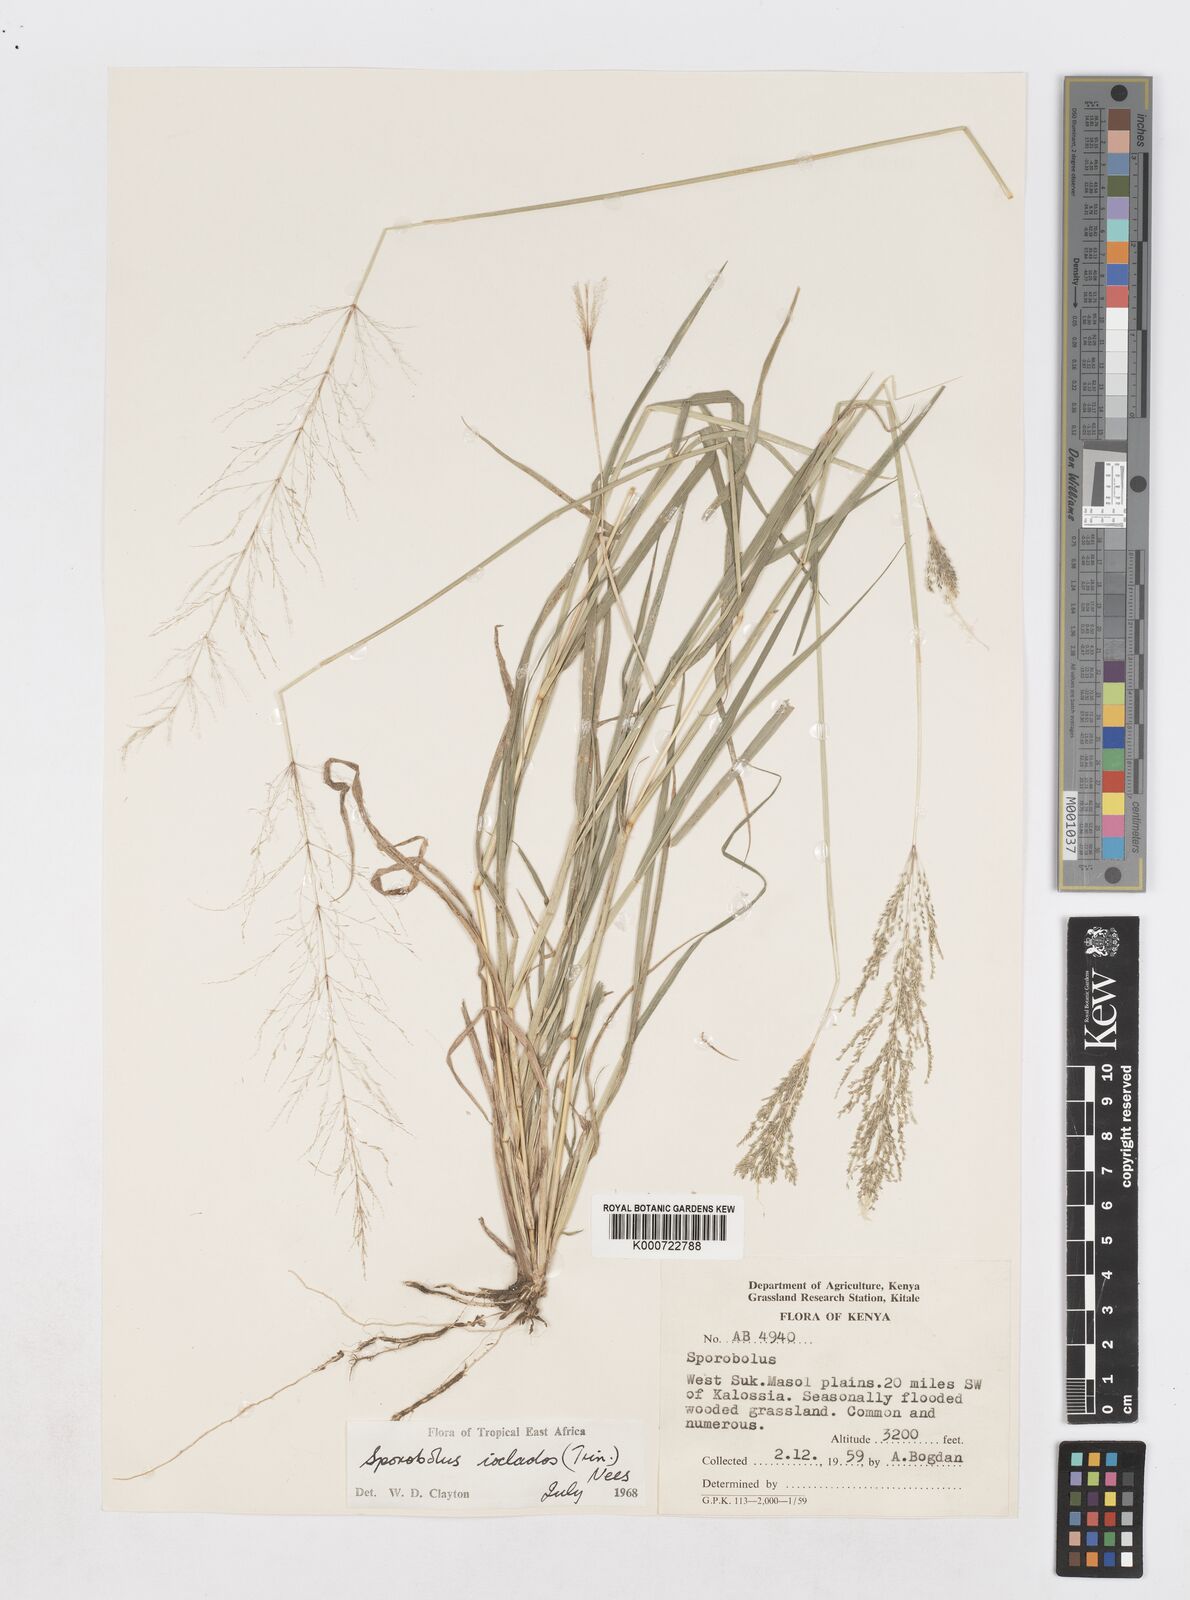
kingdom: Plantae
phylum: Tracheophyta
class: Liliopsida
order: Poales
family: Poaceae
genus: Sporobolus
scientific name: Sporobolus ioclados
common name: Pan dropseed
